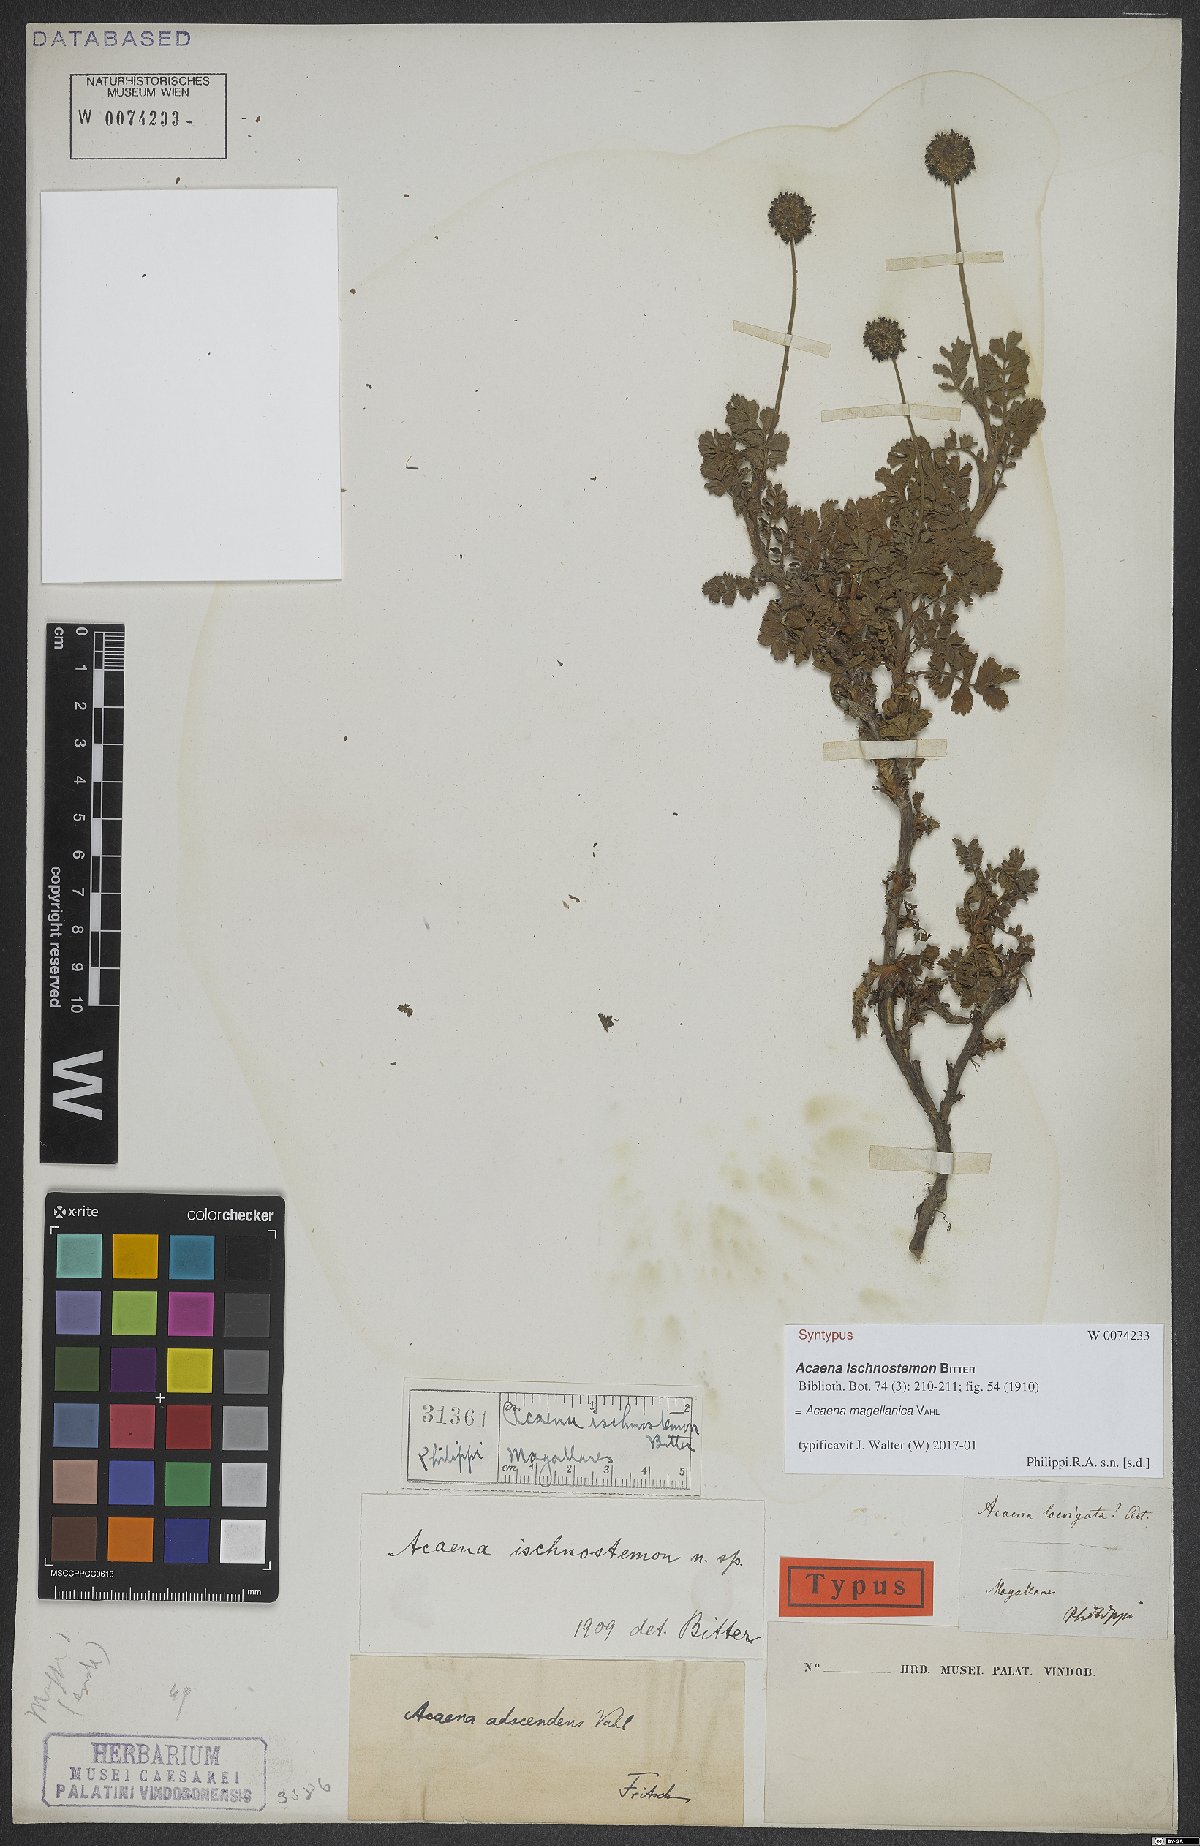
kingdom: Plantae
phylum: Tracheophyta
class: Magnoliopsida
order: Rosales
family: Rosaceae
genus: Acaena
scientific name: Acaena magellanica
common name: New zealand burr
